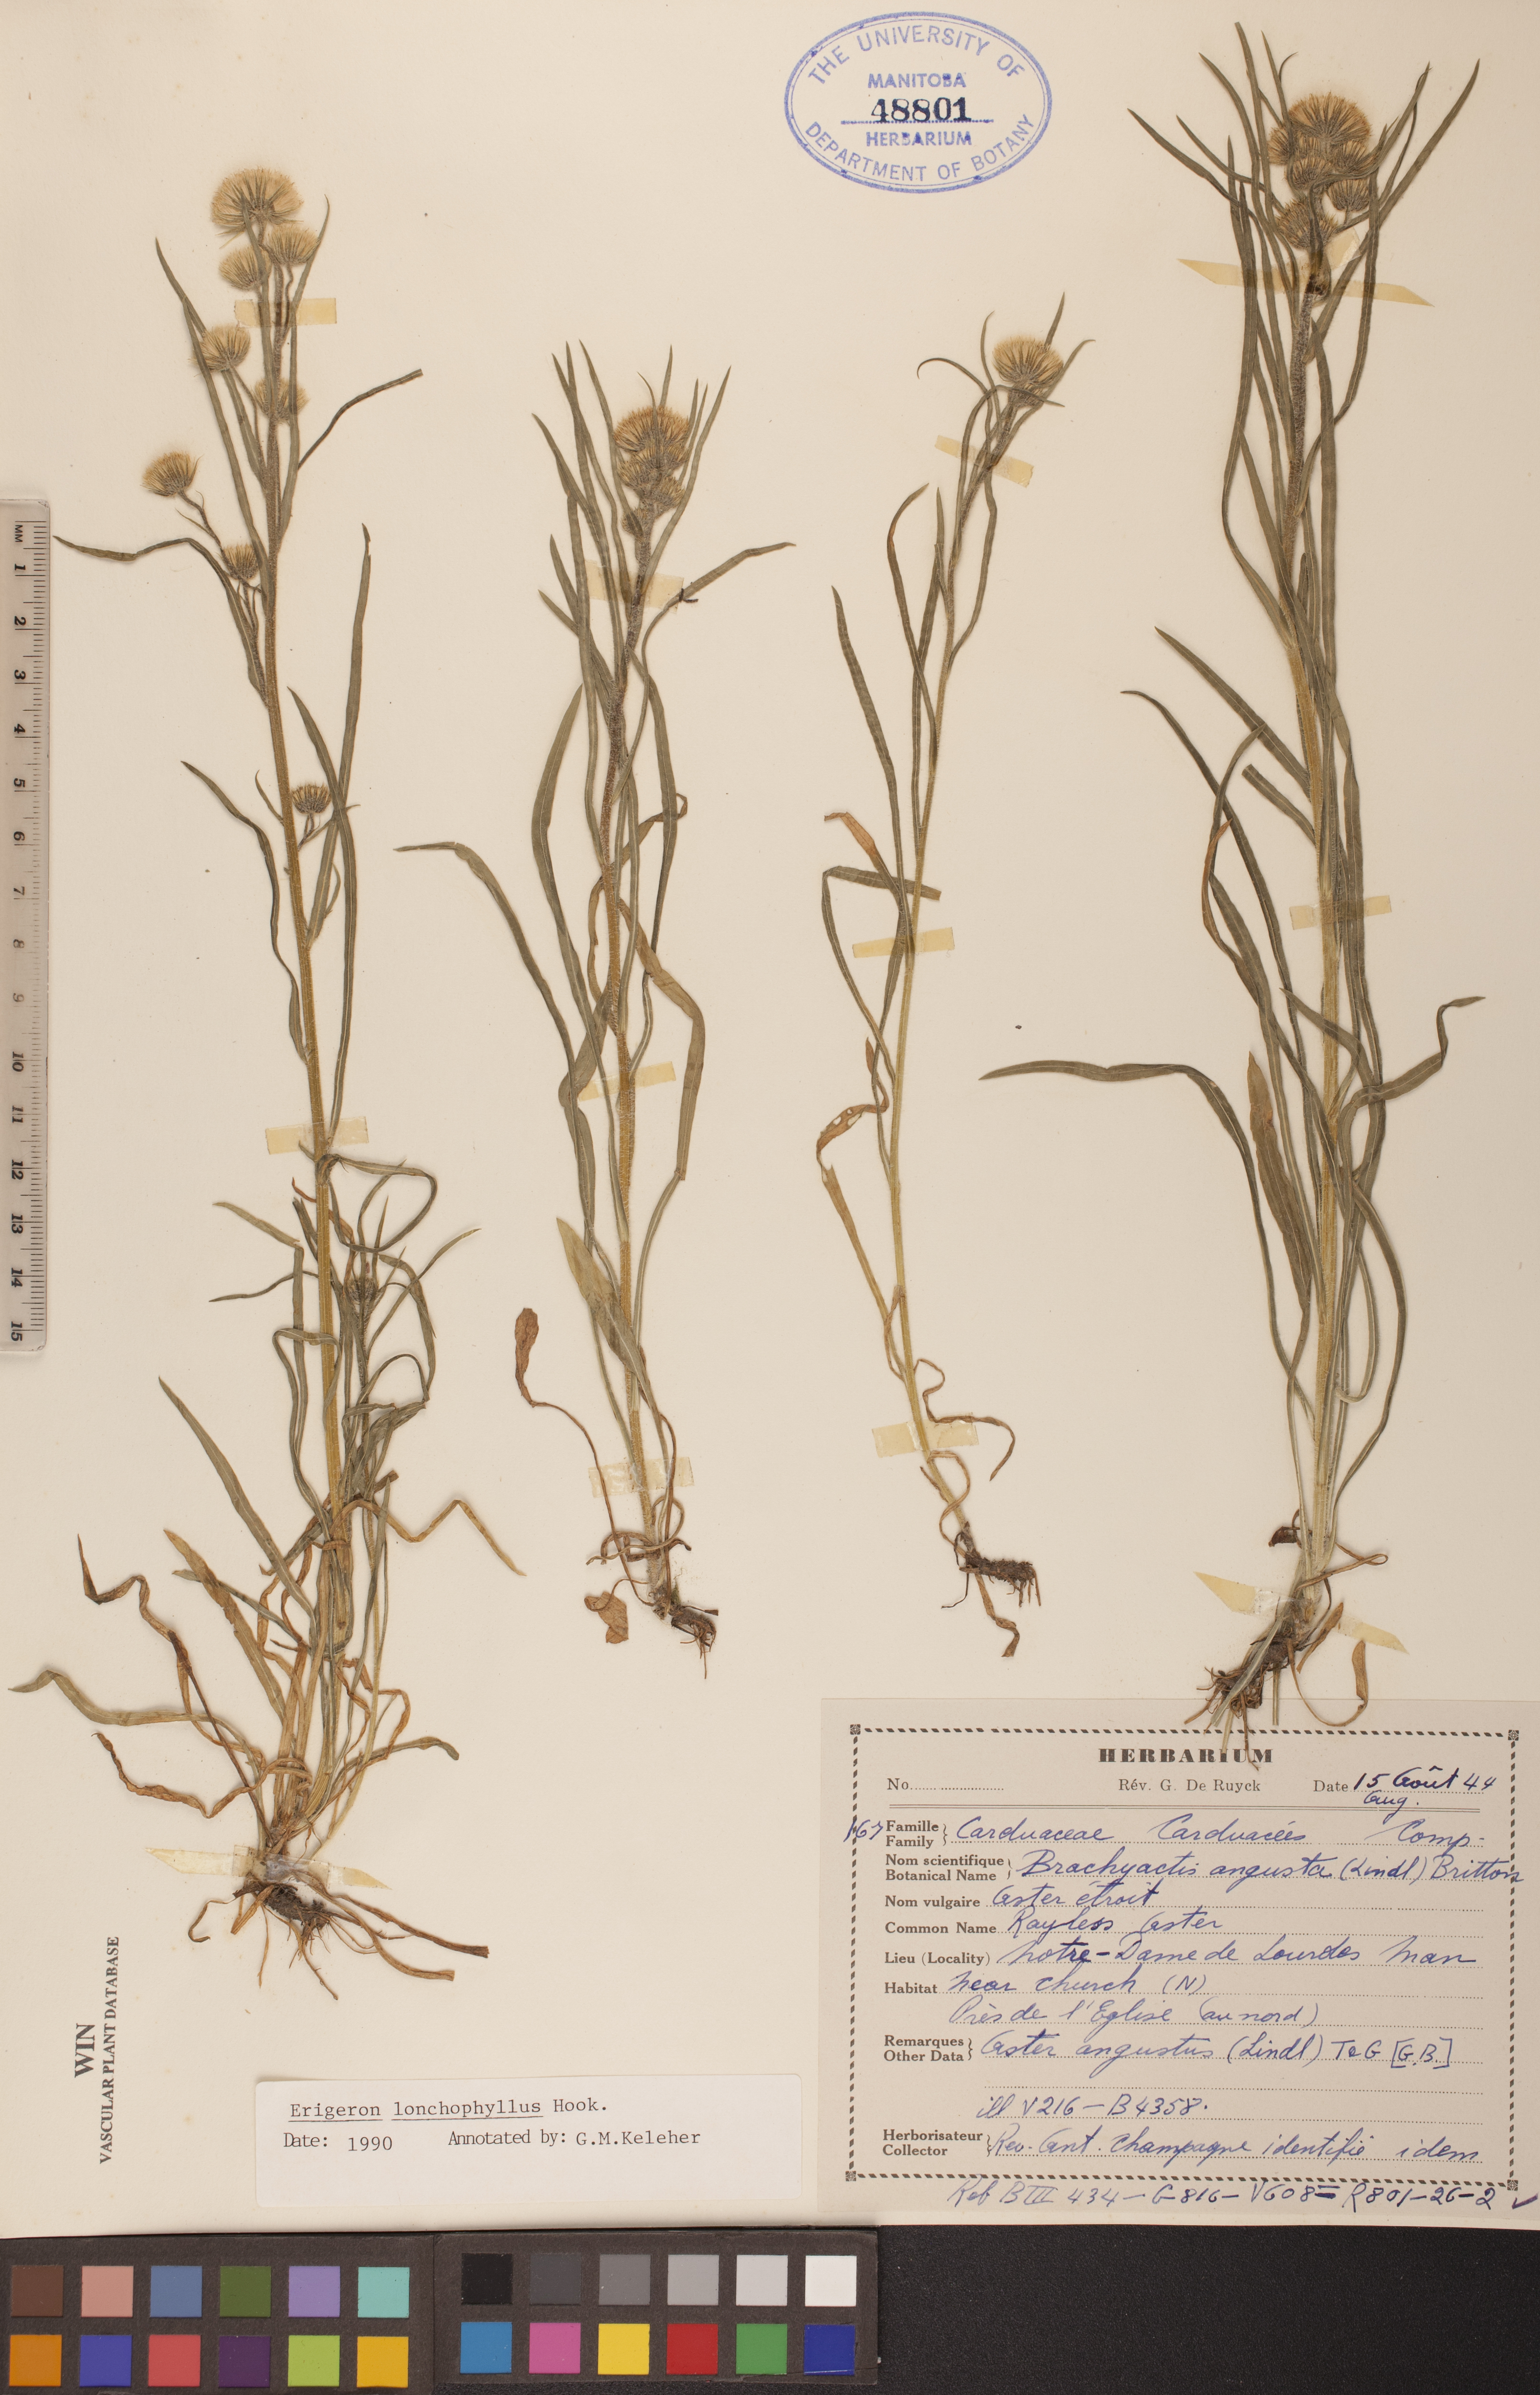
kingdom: Plantae
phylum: Tracheophyta
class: Magnoliopsida
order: Asterales
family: Asteraceae
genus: Erigeron
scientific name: Erigeron lonchophyllus
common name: Short-ray fleabane
